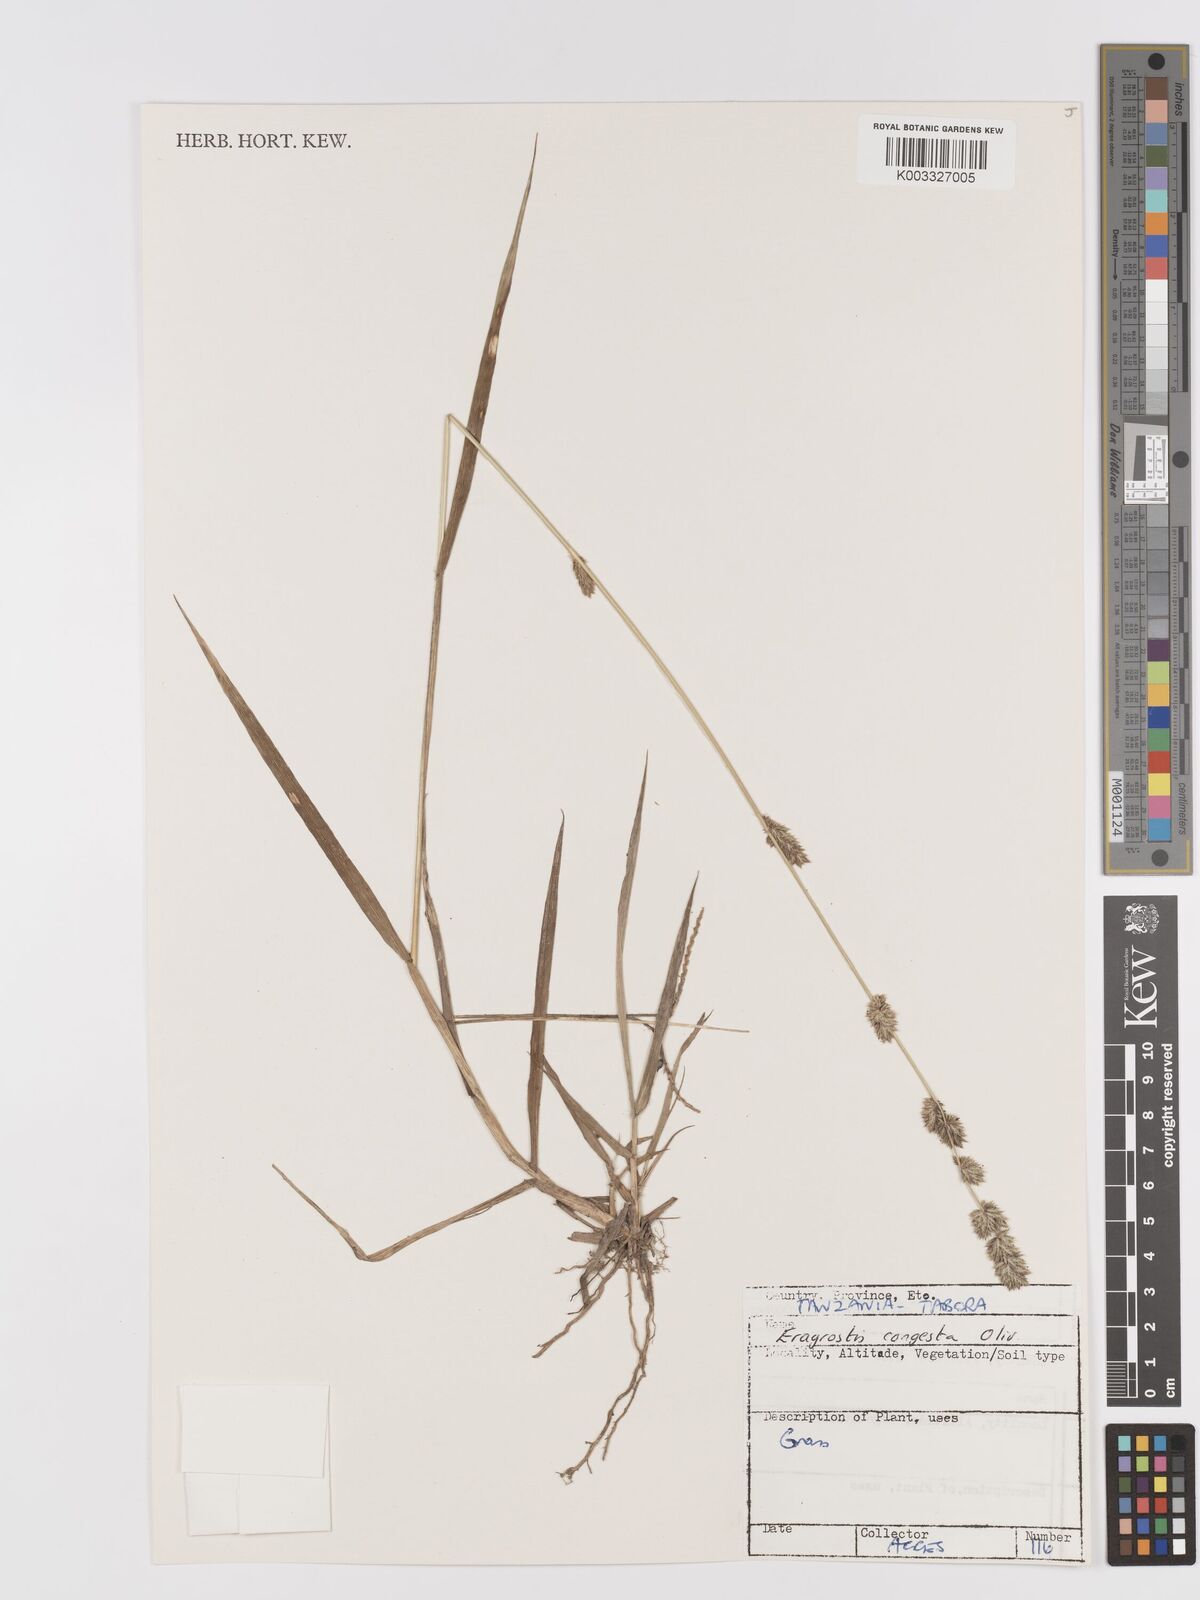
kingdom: Plantae
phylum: Tracheophyta
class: Liliopsida
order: Poales
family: Poaceae
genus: Eragrostis
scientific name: Eragrostis congesta
